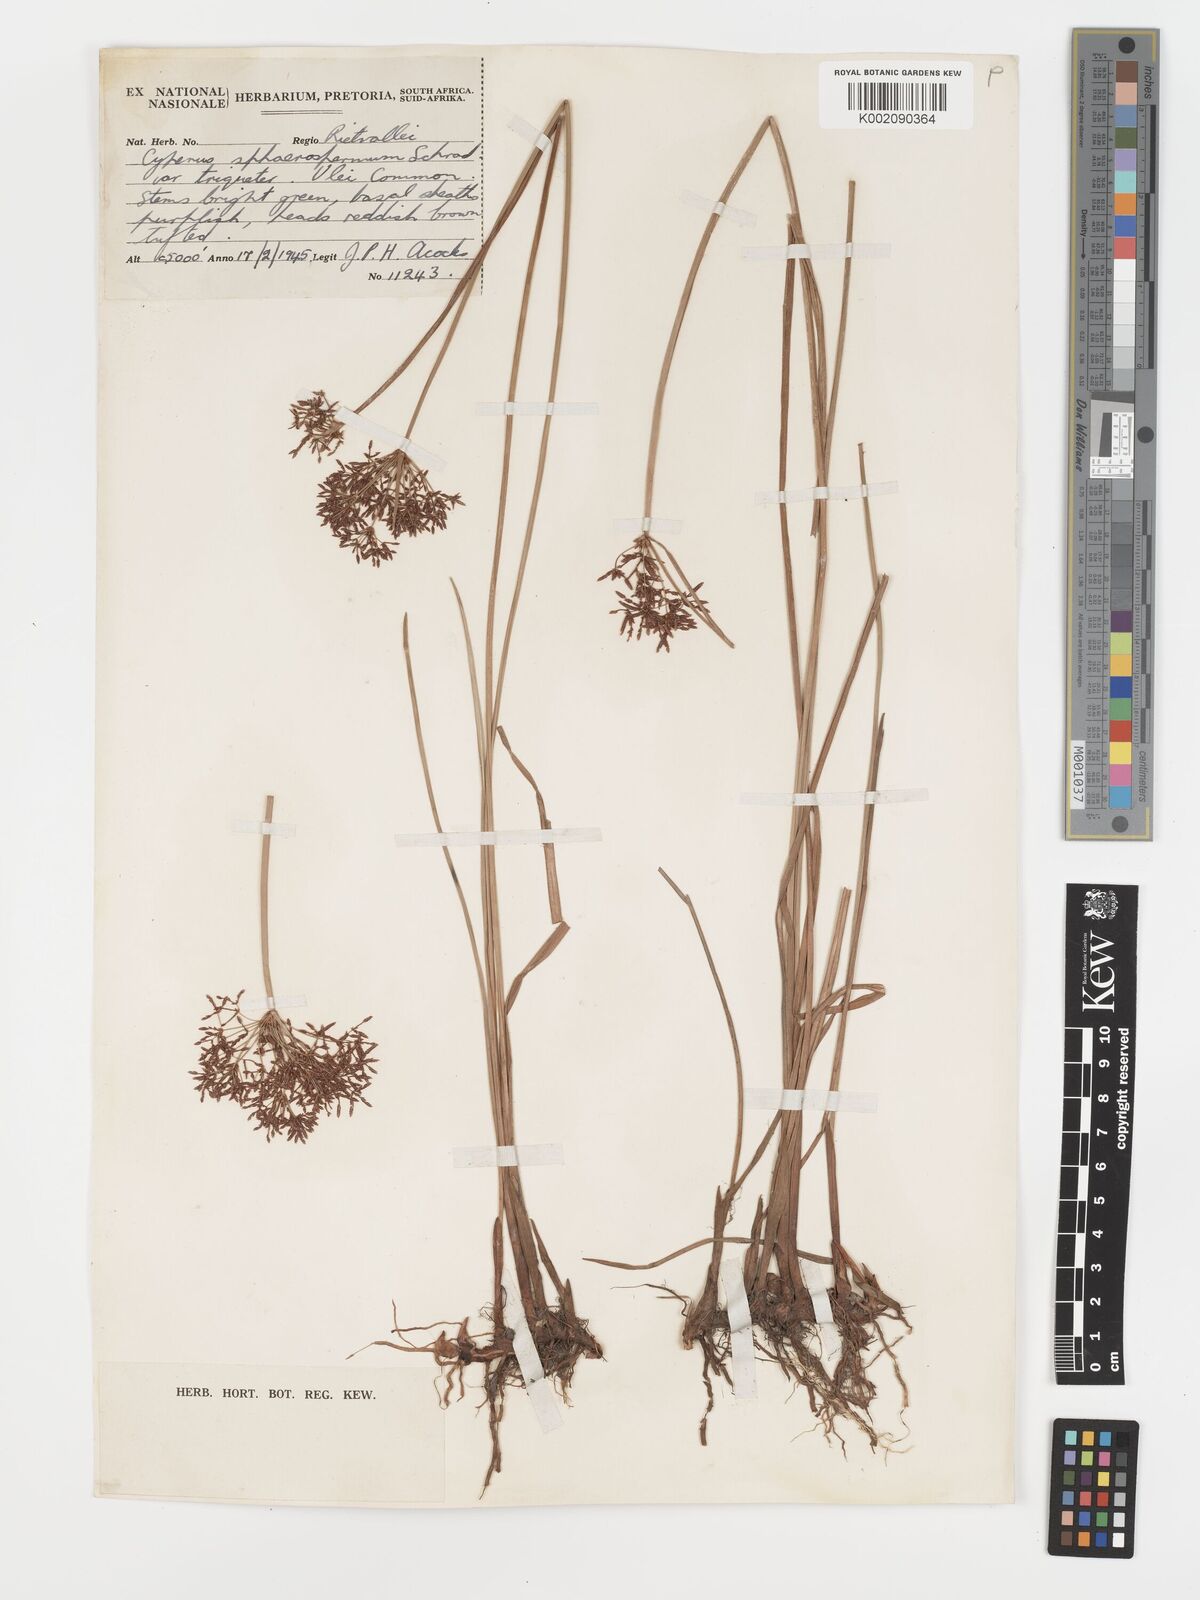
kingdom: Plantae
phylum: Tracheophyta
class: Liliopsida
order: Poales
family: Cyperaceae
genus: Cyperus
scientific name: Cyperus haspan
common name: Haspan flatsedge
